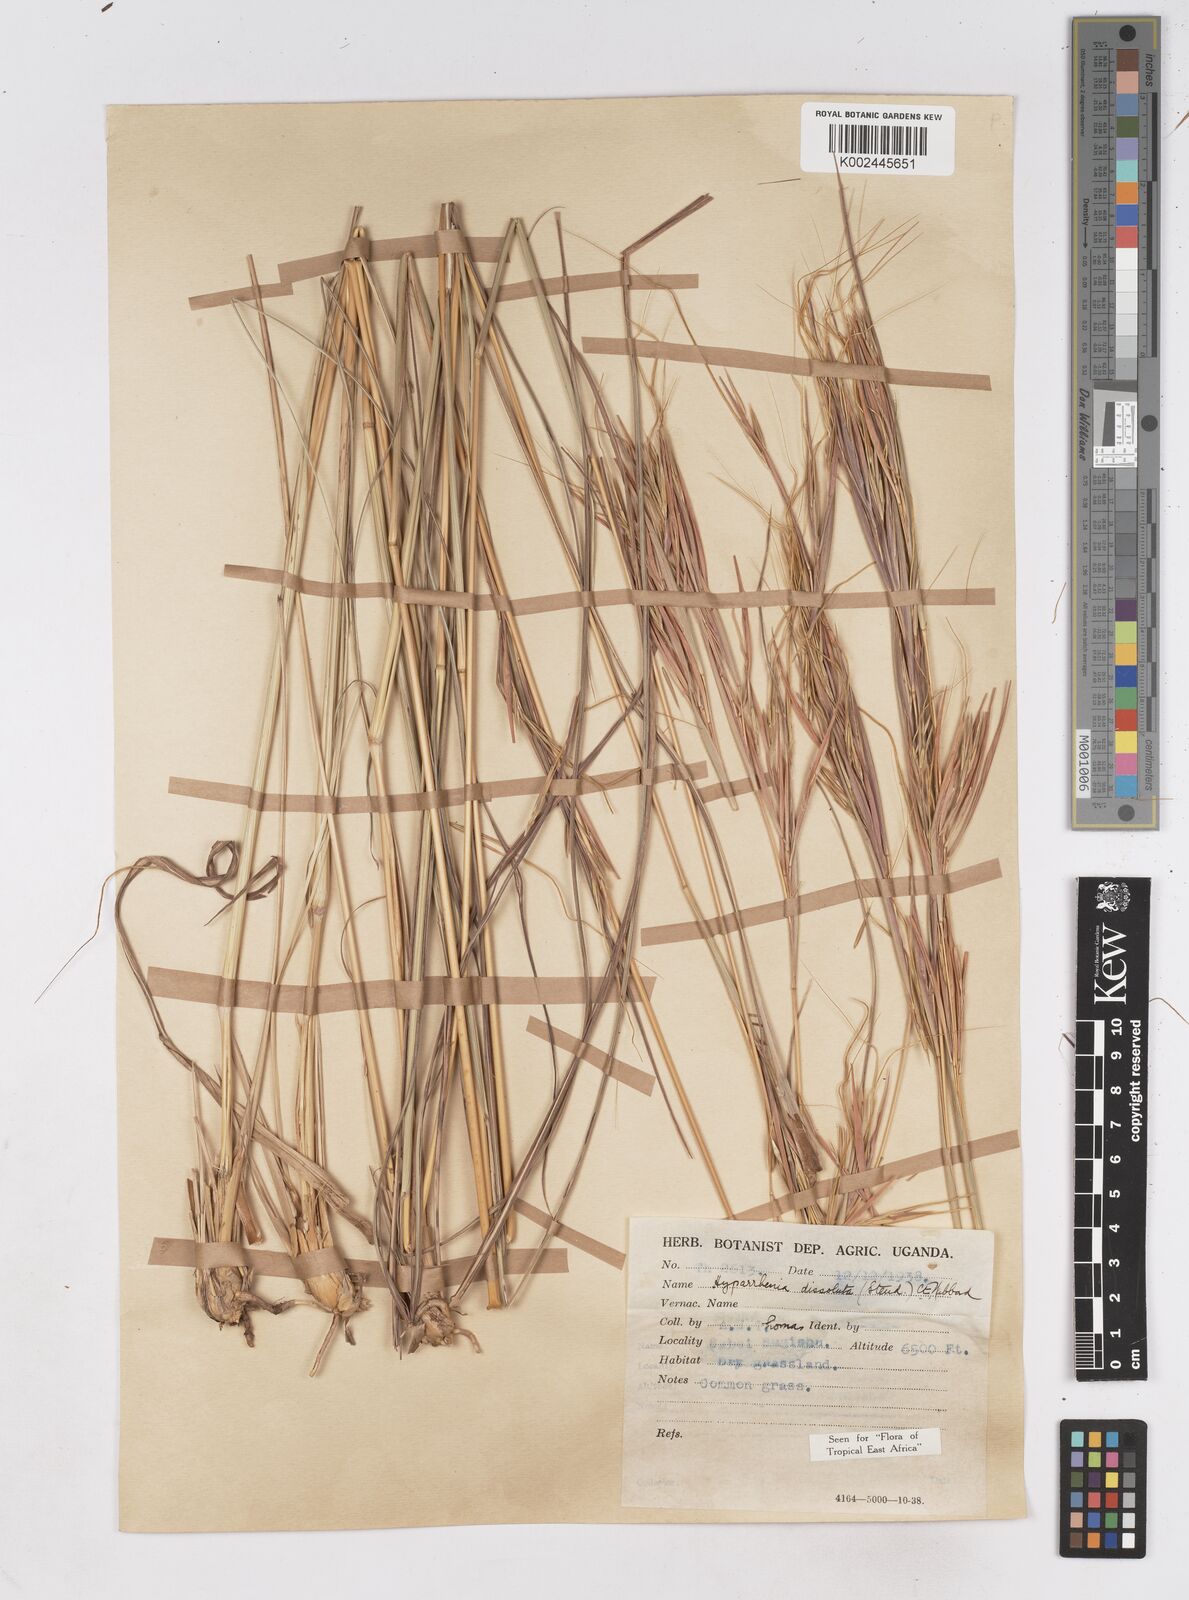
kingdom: Plantae
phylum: Tracheophyta
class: Liliopsida
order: Poales
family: Poaceae
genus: Hyperthelia
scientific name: Hyperthelia dissoluta
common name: Yellow thatching grass
